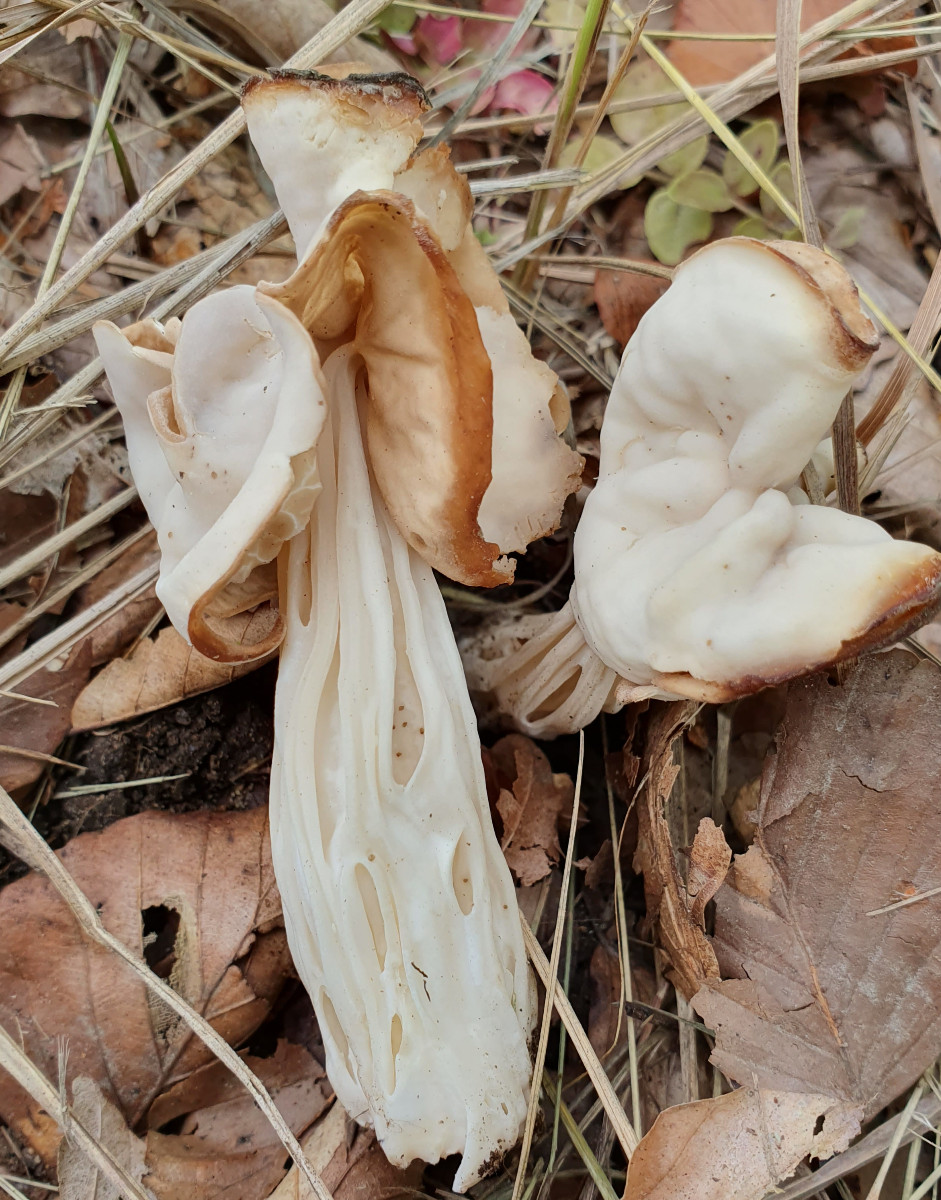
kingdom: Fungi
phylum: Ascomycota
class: Pezizomycetes
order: Pezizales
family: Helvellaceae
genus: Helvella
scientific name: Helvella crispa
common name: kruset foldhat
